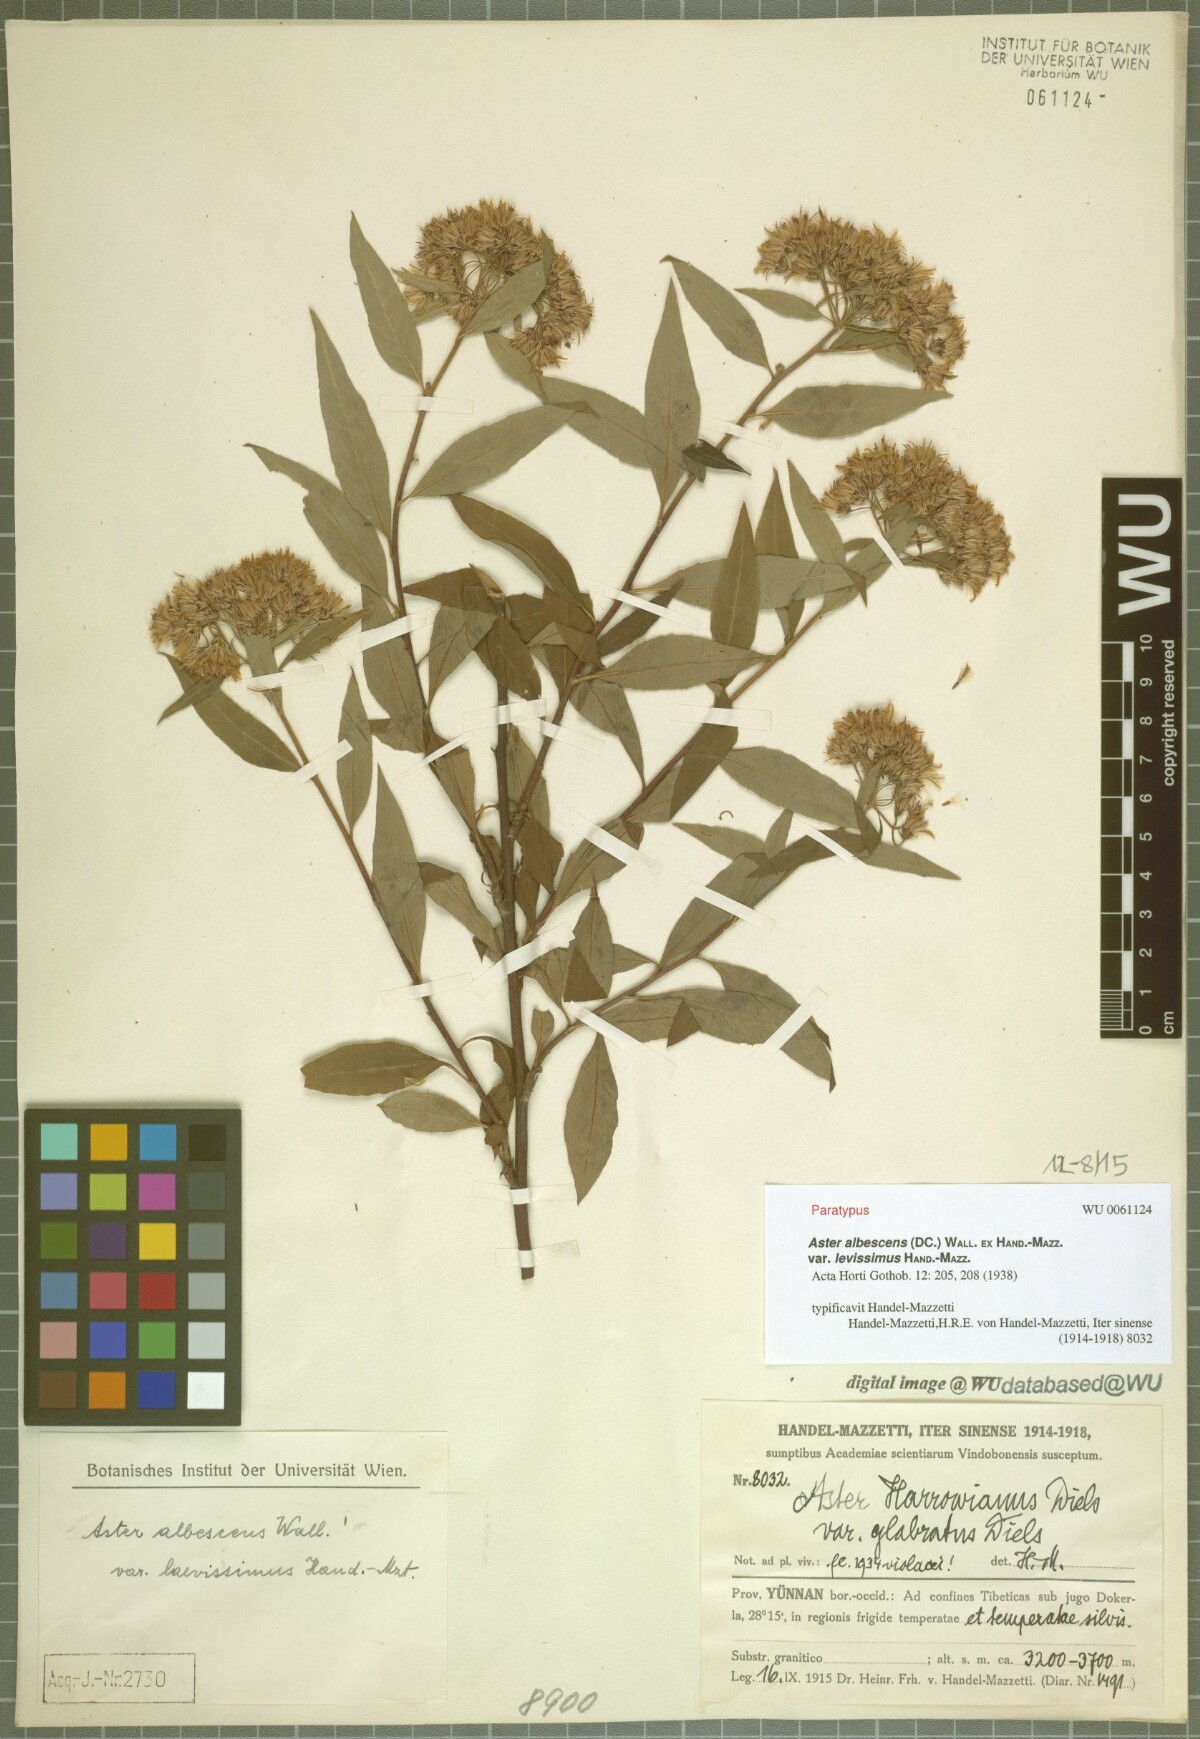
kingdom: Plantae
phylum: Tracheophyta
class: Magnoliopsida
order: Asterales
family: Asteraceae
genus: Sinosidus
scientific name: Sinosidus albescens
